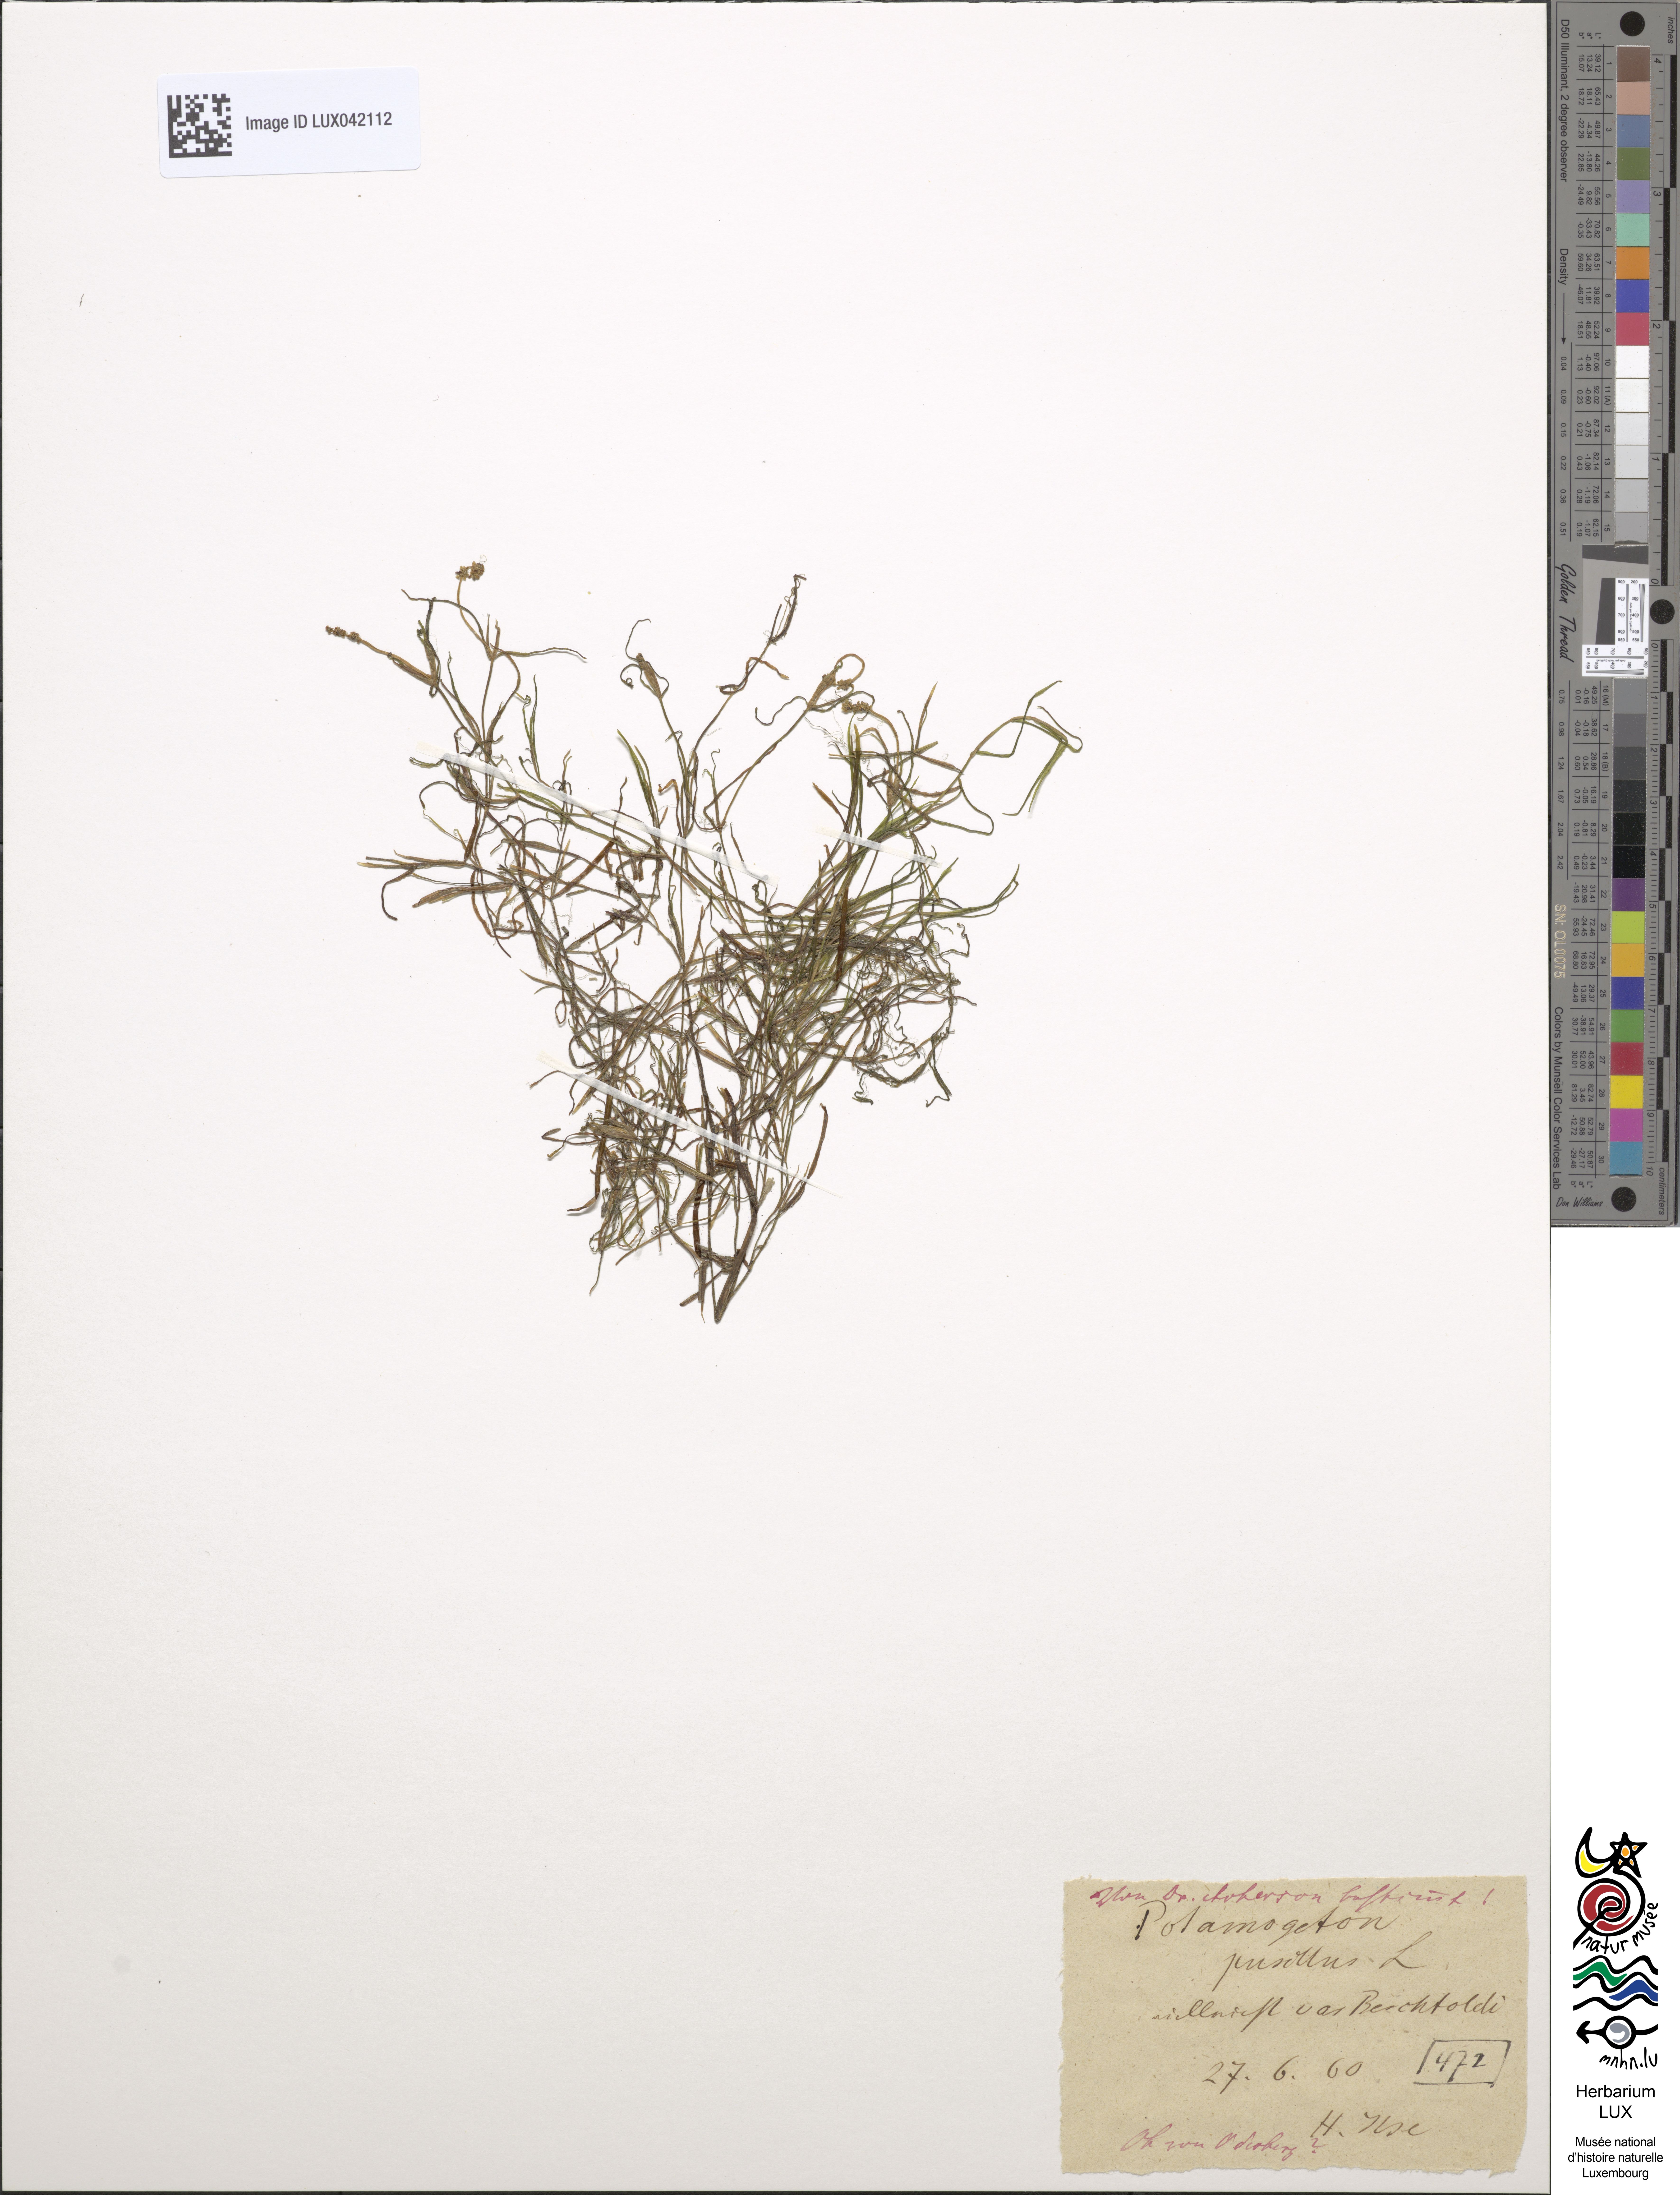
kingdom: Plantae
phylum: Tracheophyta
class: Liliopsida
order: Alismatales
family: Potamogetonaceae
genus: Potamogeton
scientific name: Potamogeton berchtoldii
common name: Small pondweed
